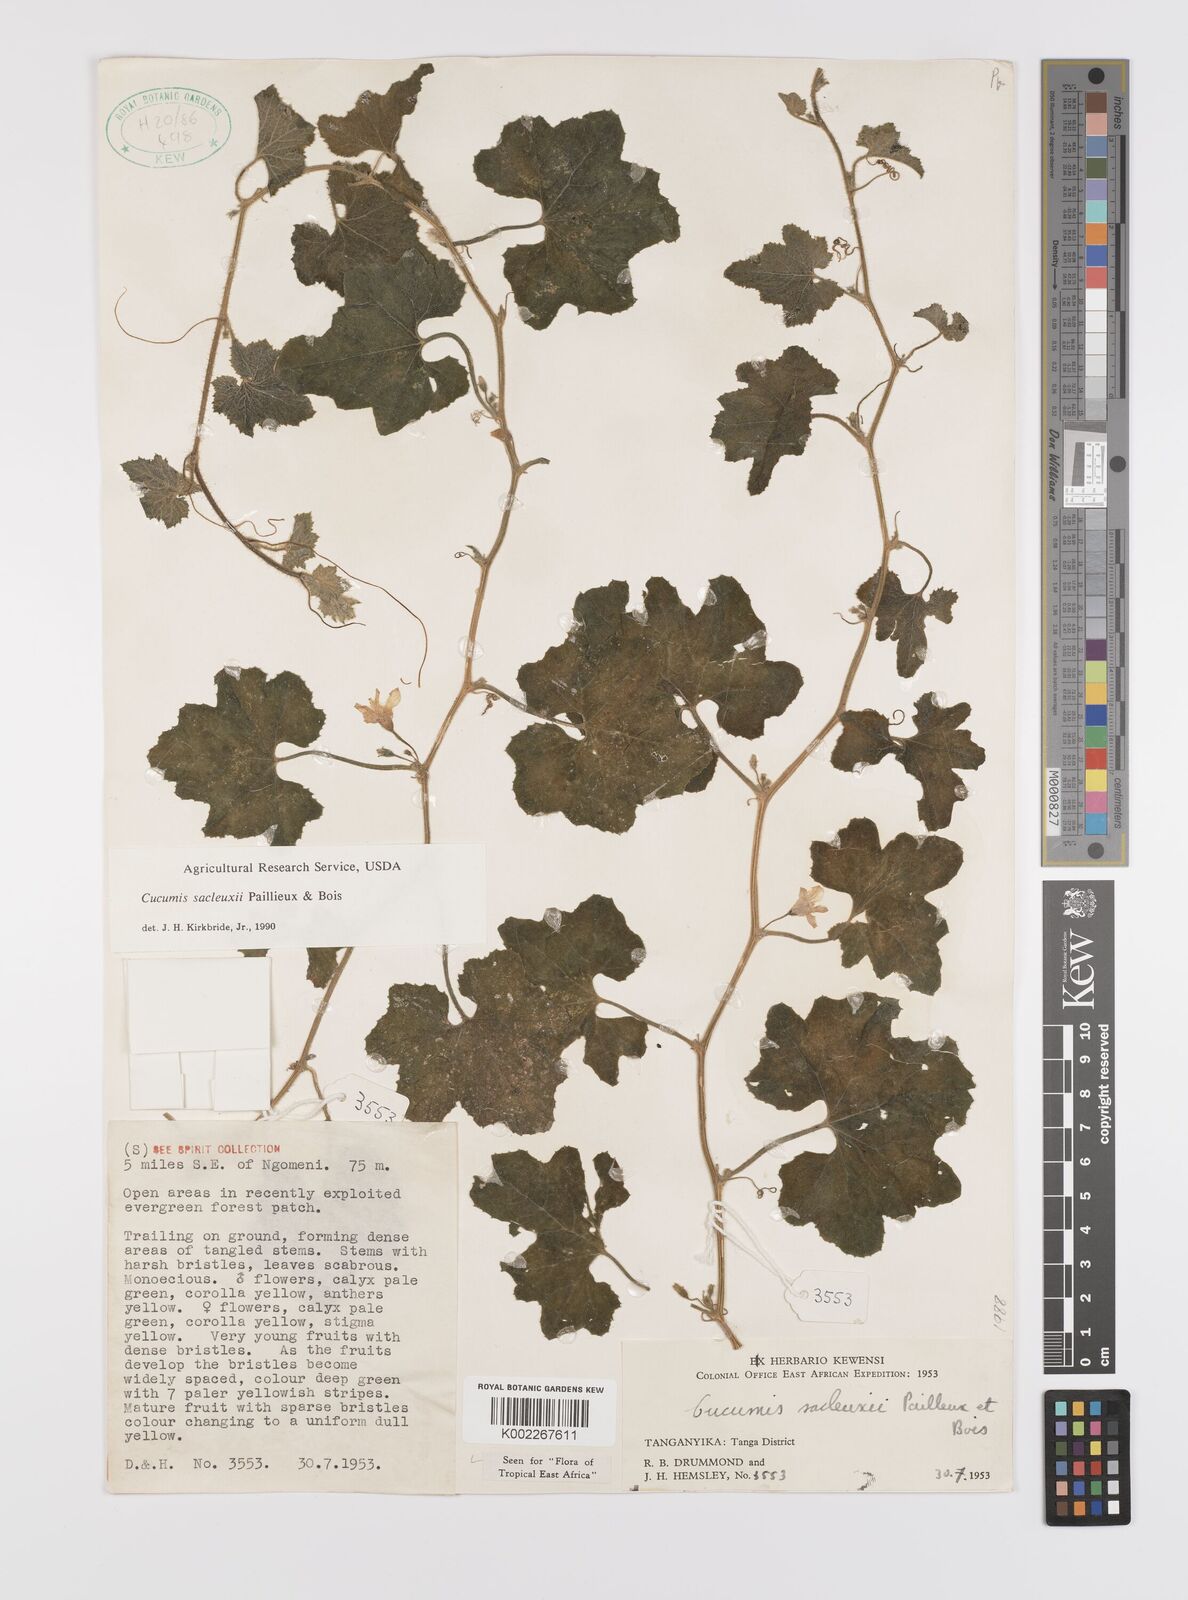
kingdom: Plantae
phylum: Tracheophyta
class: Magnoliopsida
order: Cucurbitales
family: Cucurbitaceae
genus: Cucumis
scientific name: Cucumis sacleuxii
